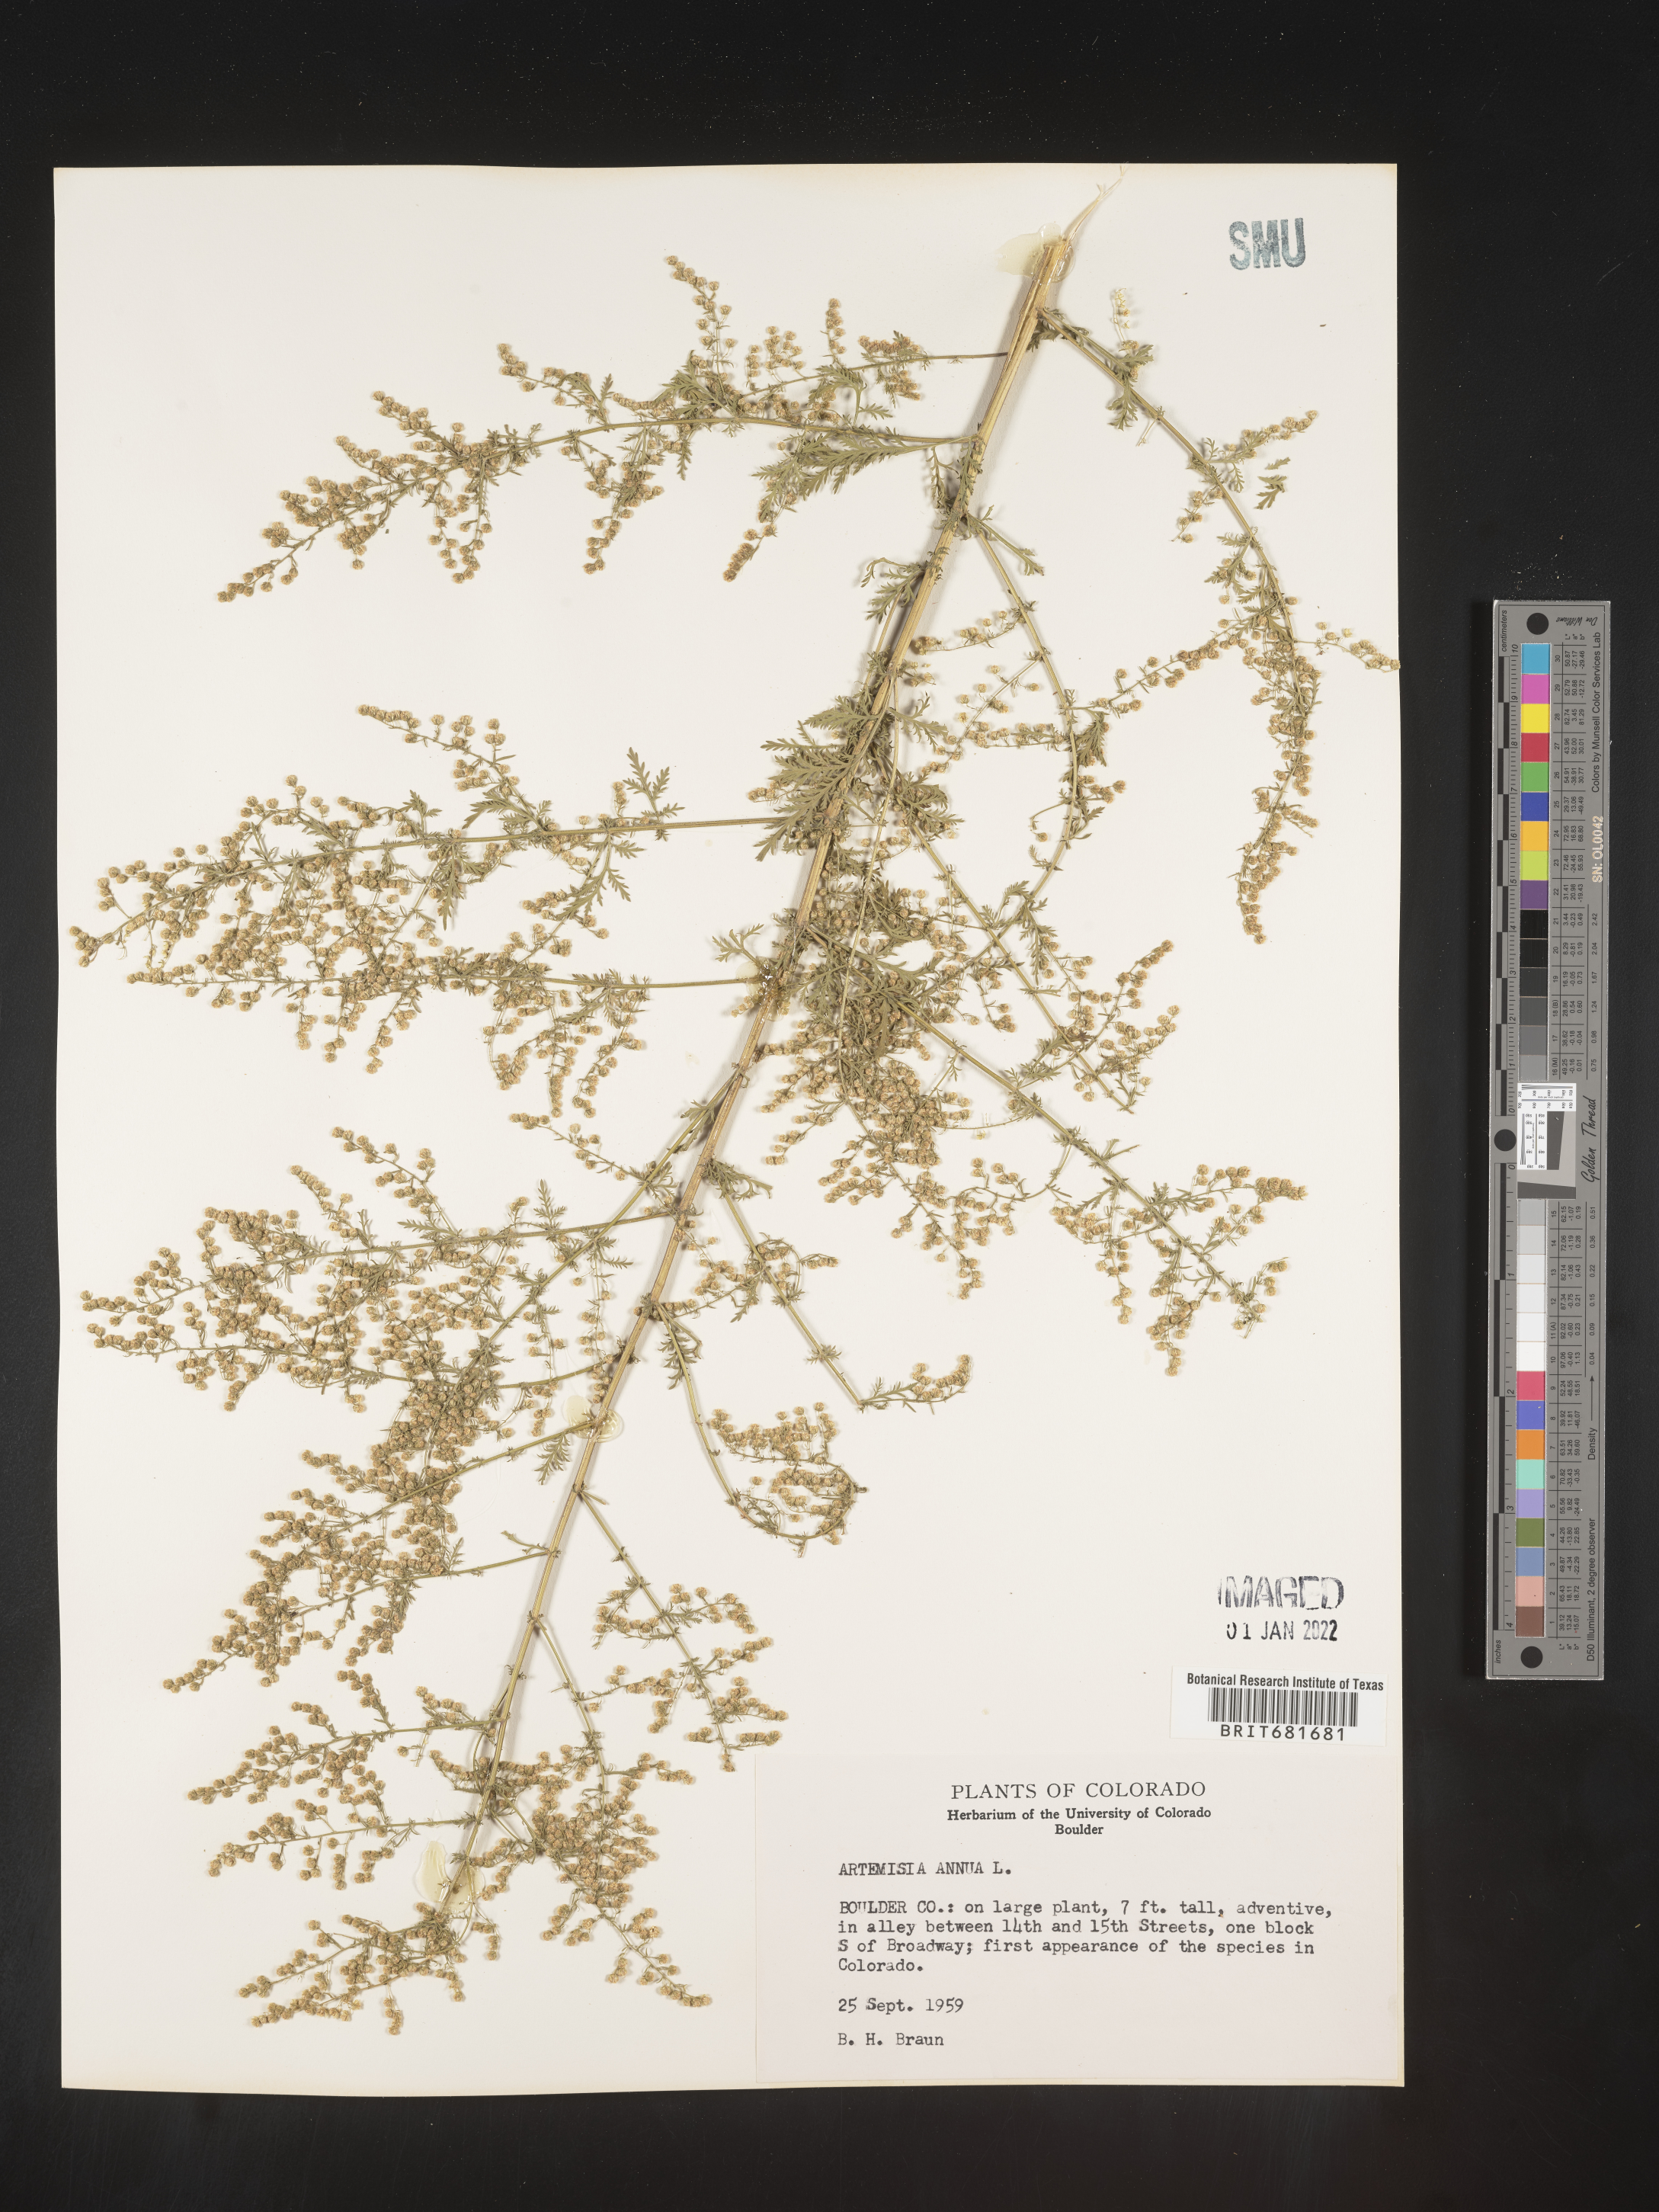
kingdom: Plantae
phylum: Tracheophyta
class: Magnoliopsida
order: Asterales
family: Asteraceae
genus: Artemisia
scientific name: Artemisia annua
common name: Sweet sagewort
